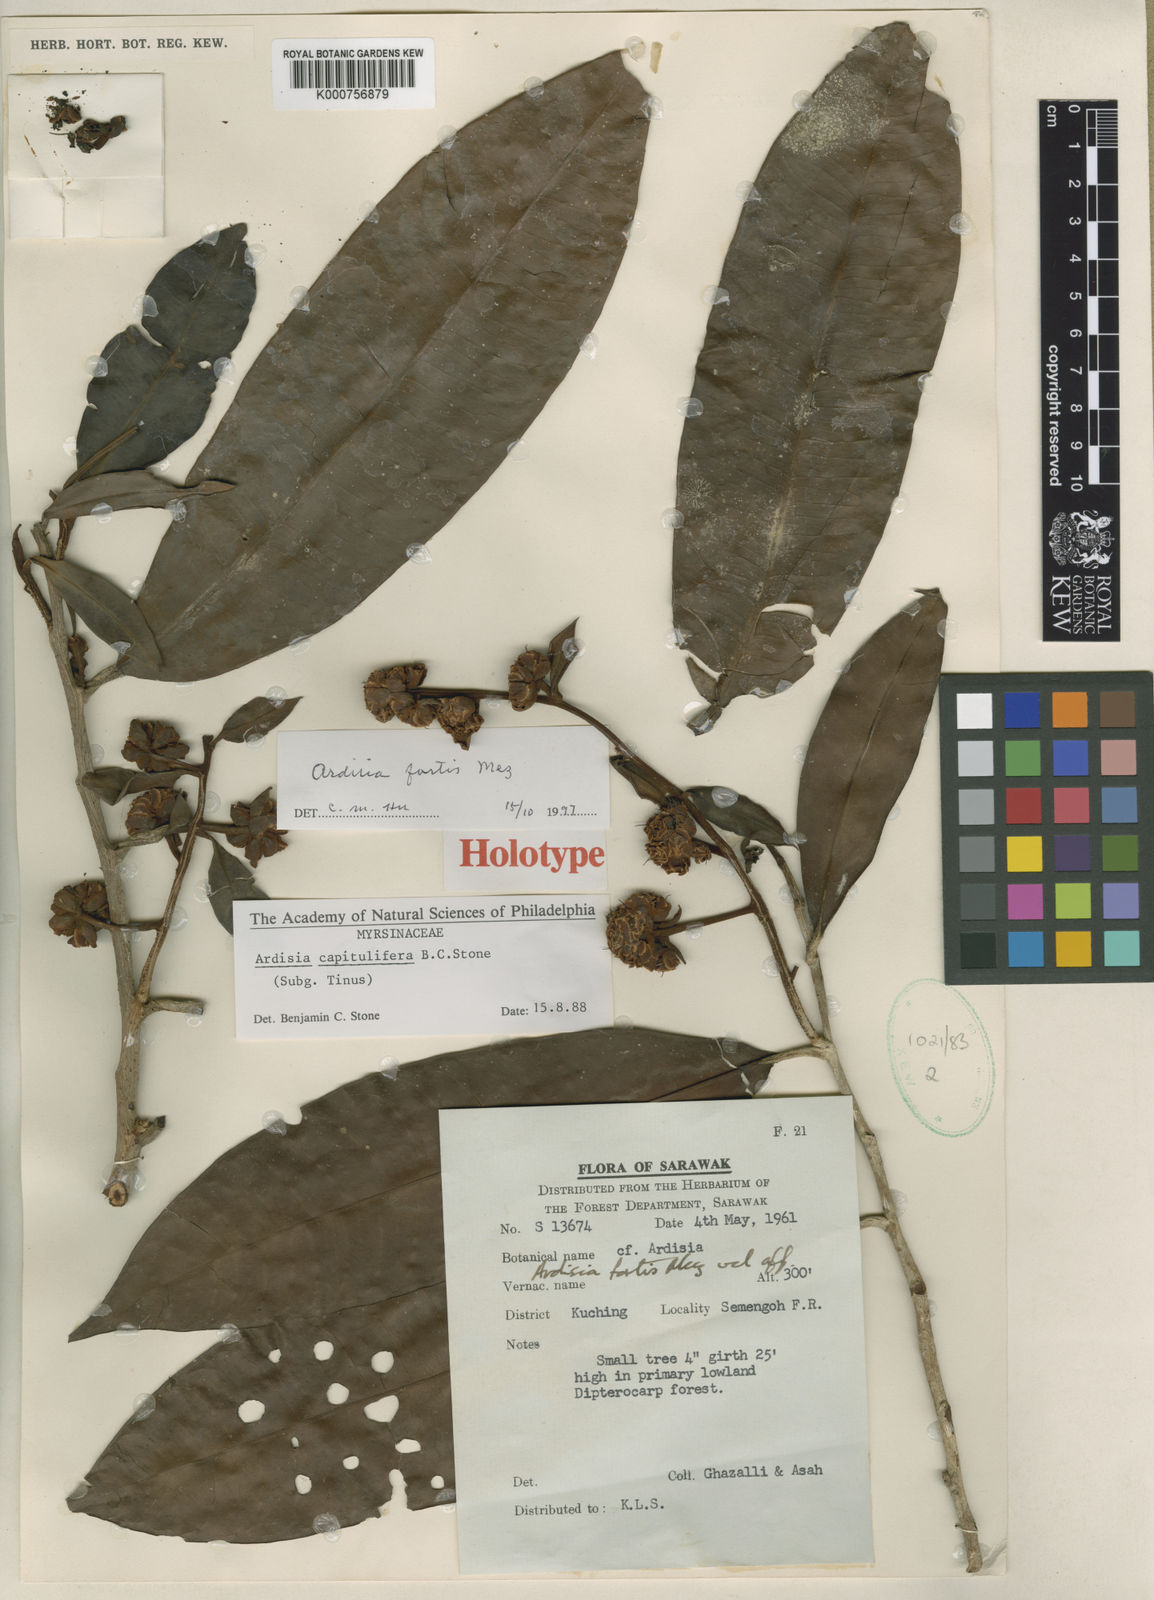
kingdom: Plantae
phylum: Tracheophyta
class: Magnoliopsida
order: Ericales
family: Primulaceae
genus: Ardisia
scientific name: Ardisia
